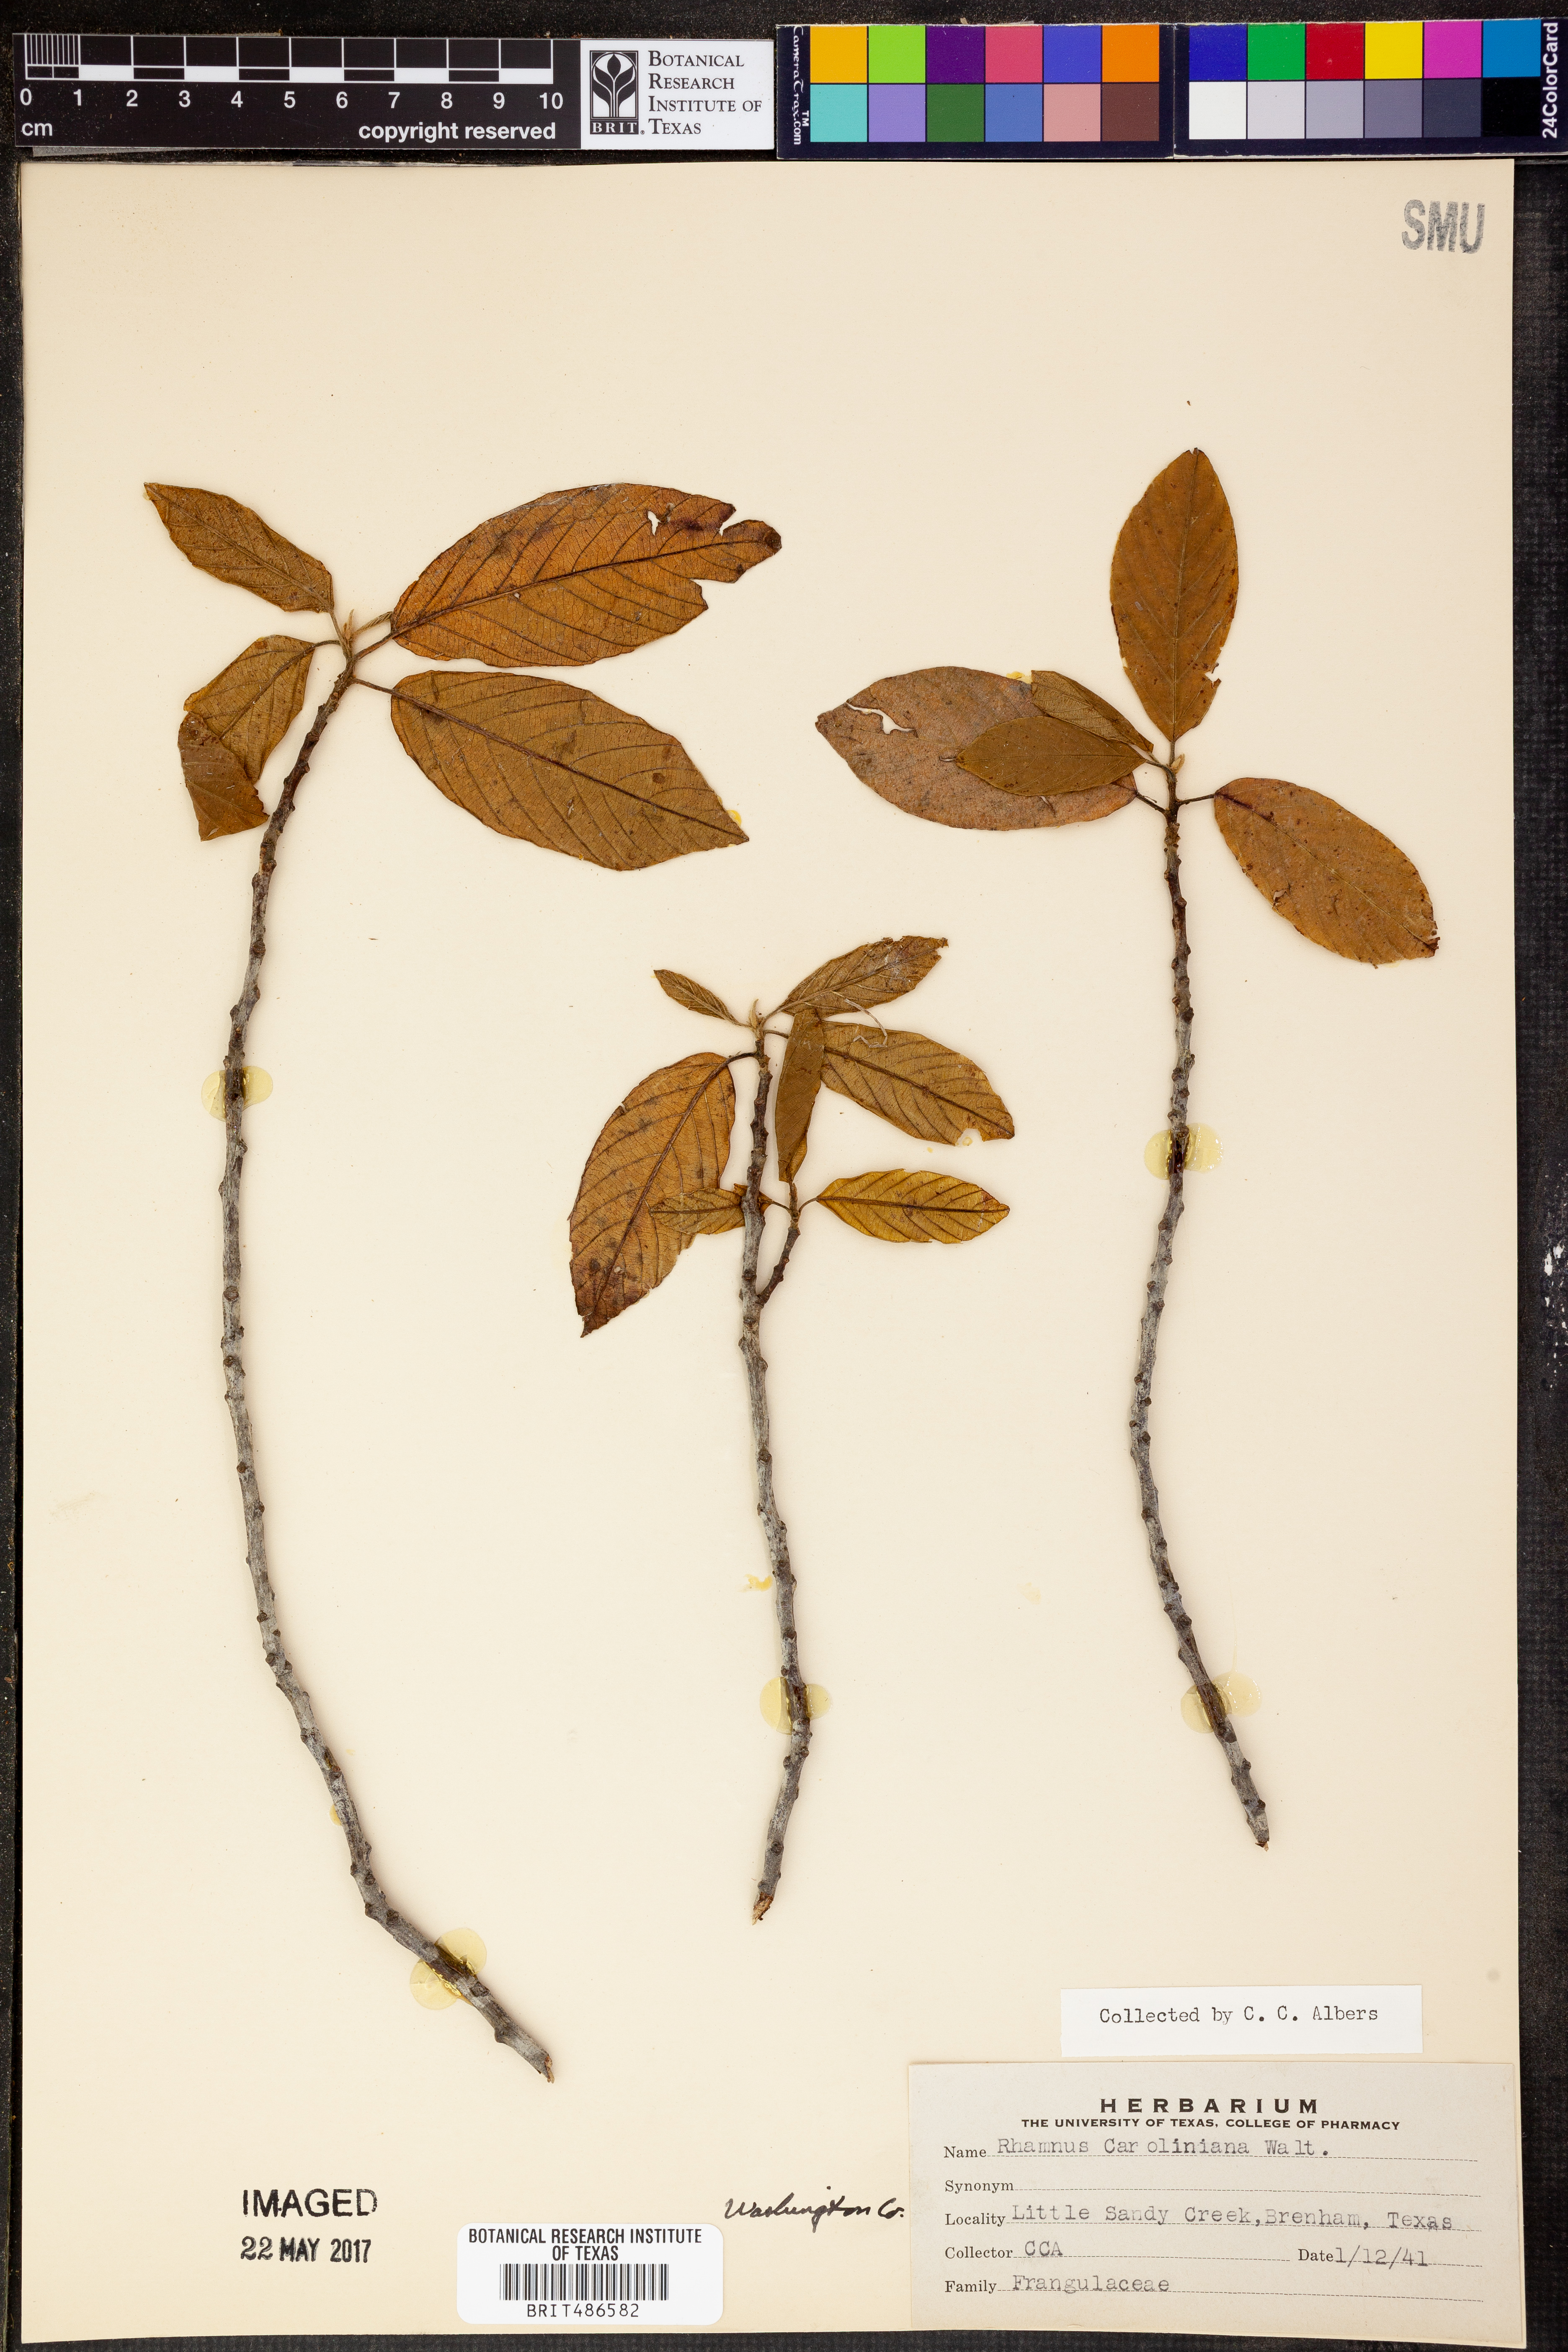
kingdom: Plantae
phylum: Tracheophyta
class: Magnoliopsida
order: Rosales
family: Rhamnaceae
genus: Frangula
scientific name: Frangula caroliniana
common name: Carolina buckthorn
